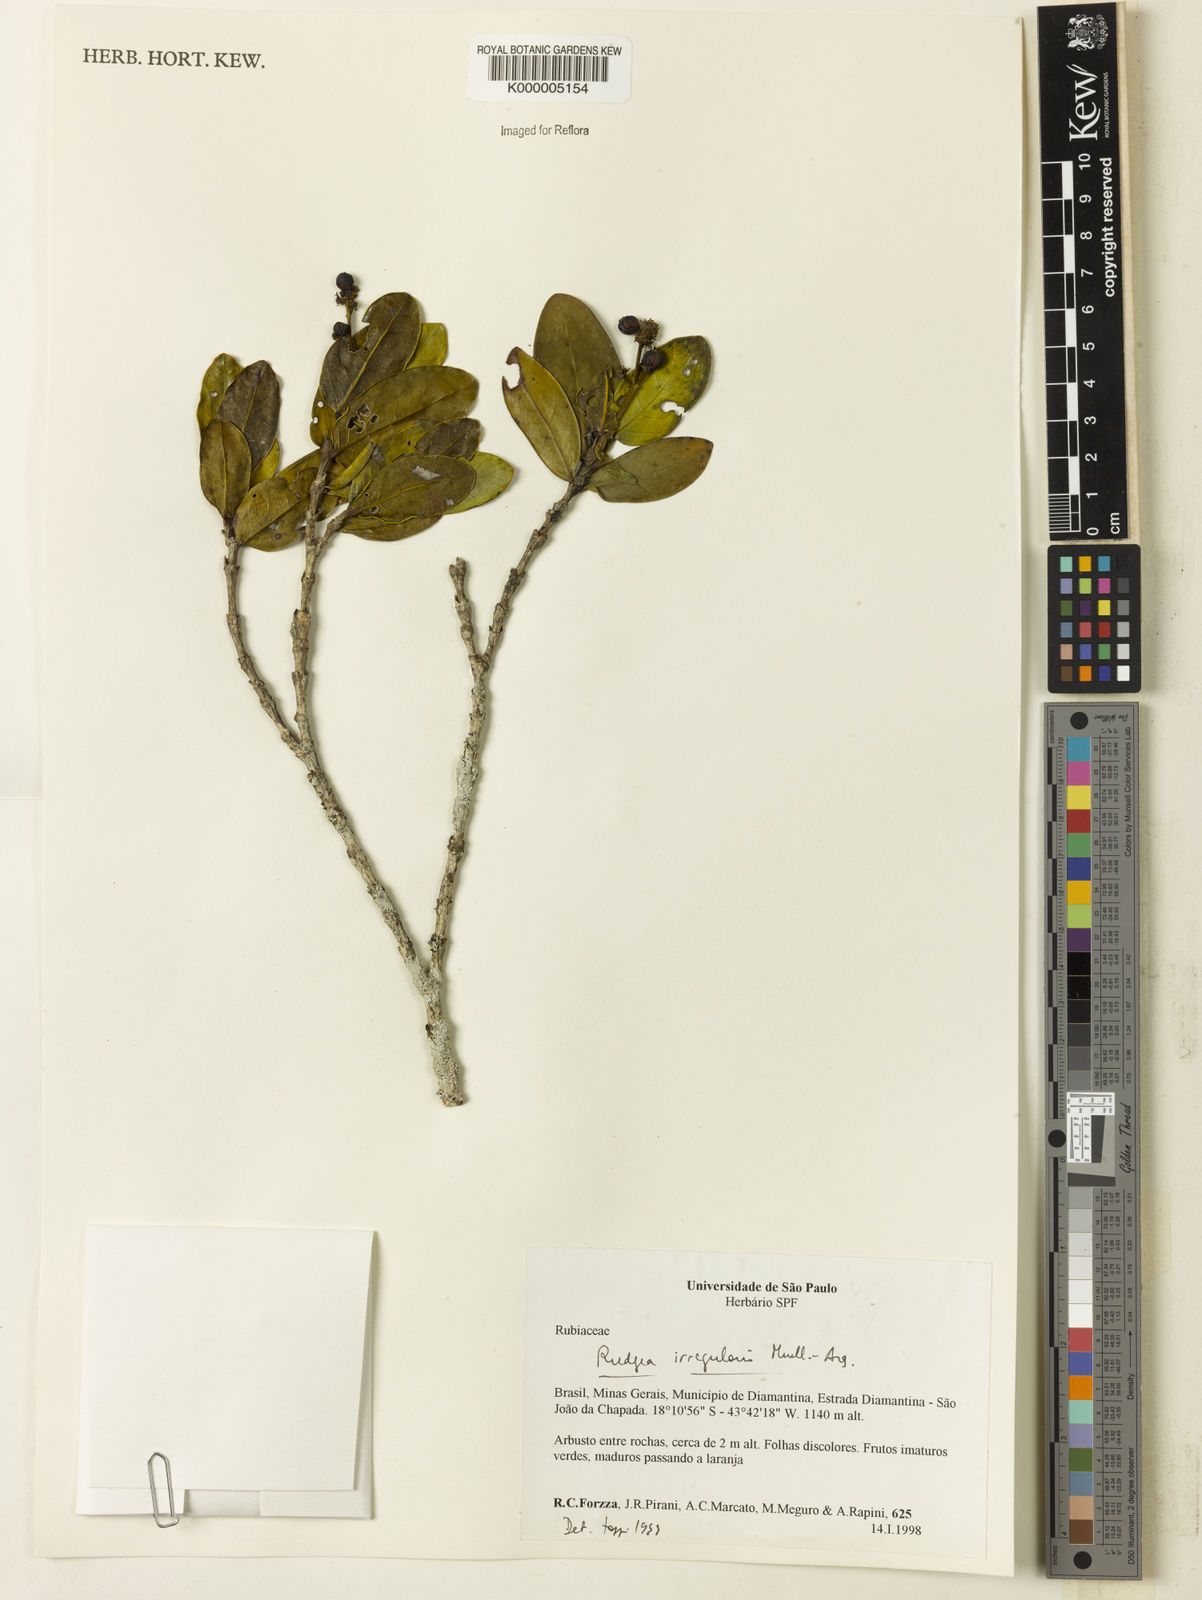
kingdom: Plantae
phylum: Tracheophyta
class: Magnoliopsida
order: Gentianales
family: Rubiaceae
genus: Rudgea
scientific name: Rudgea irregularis
